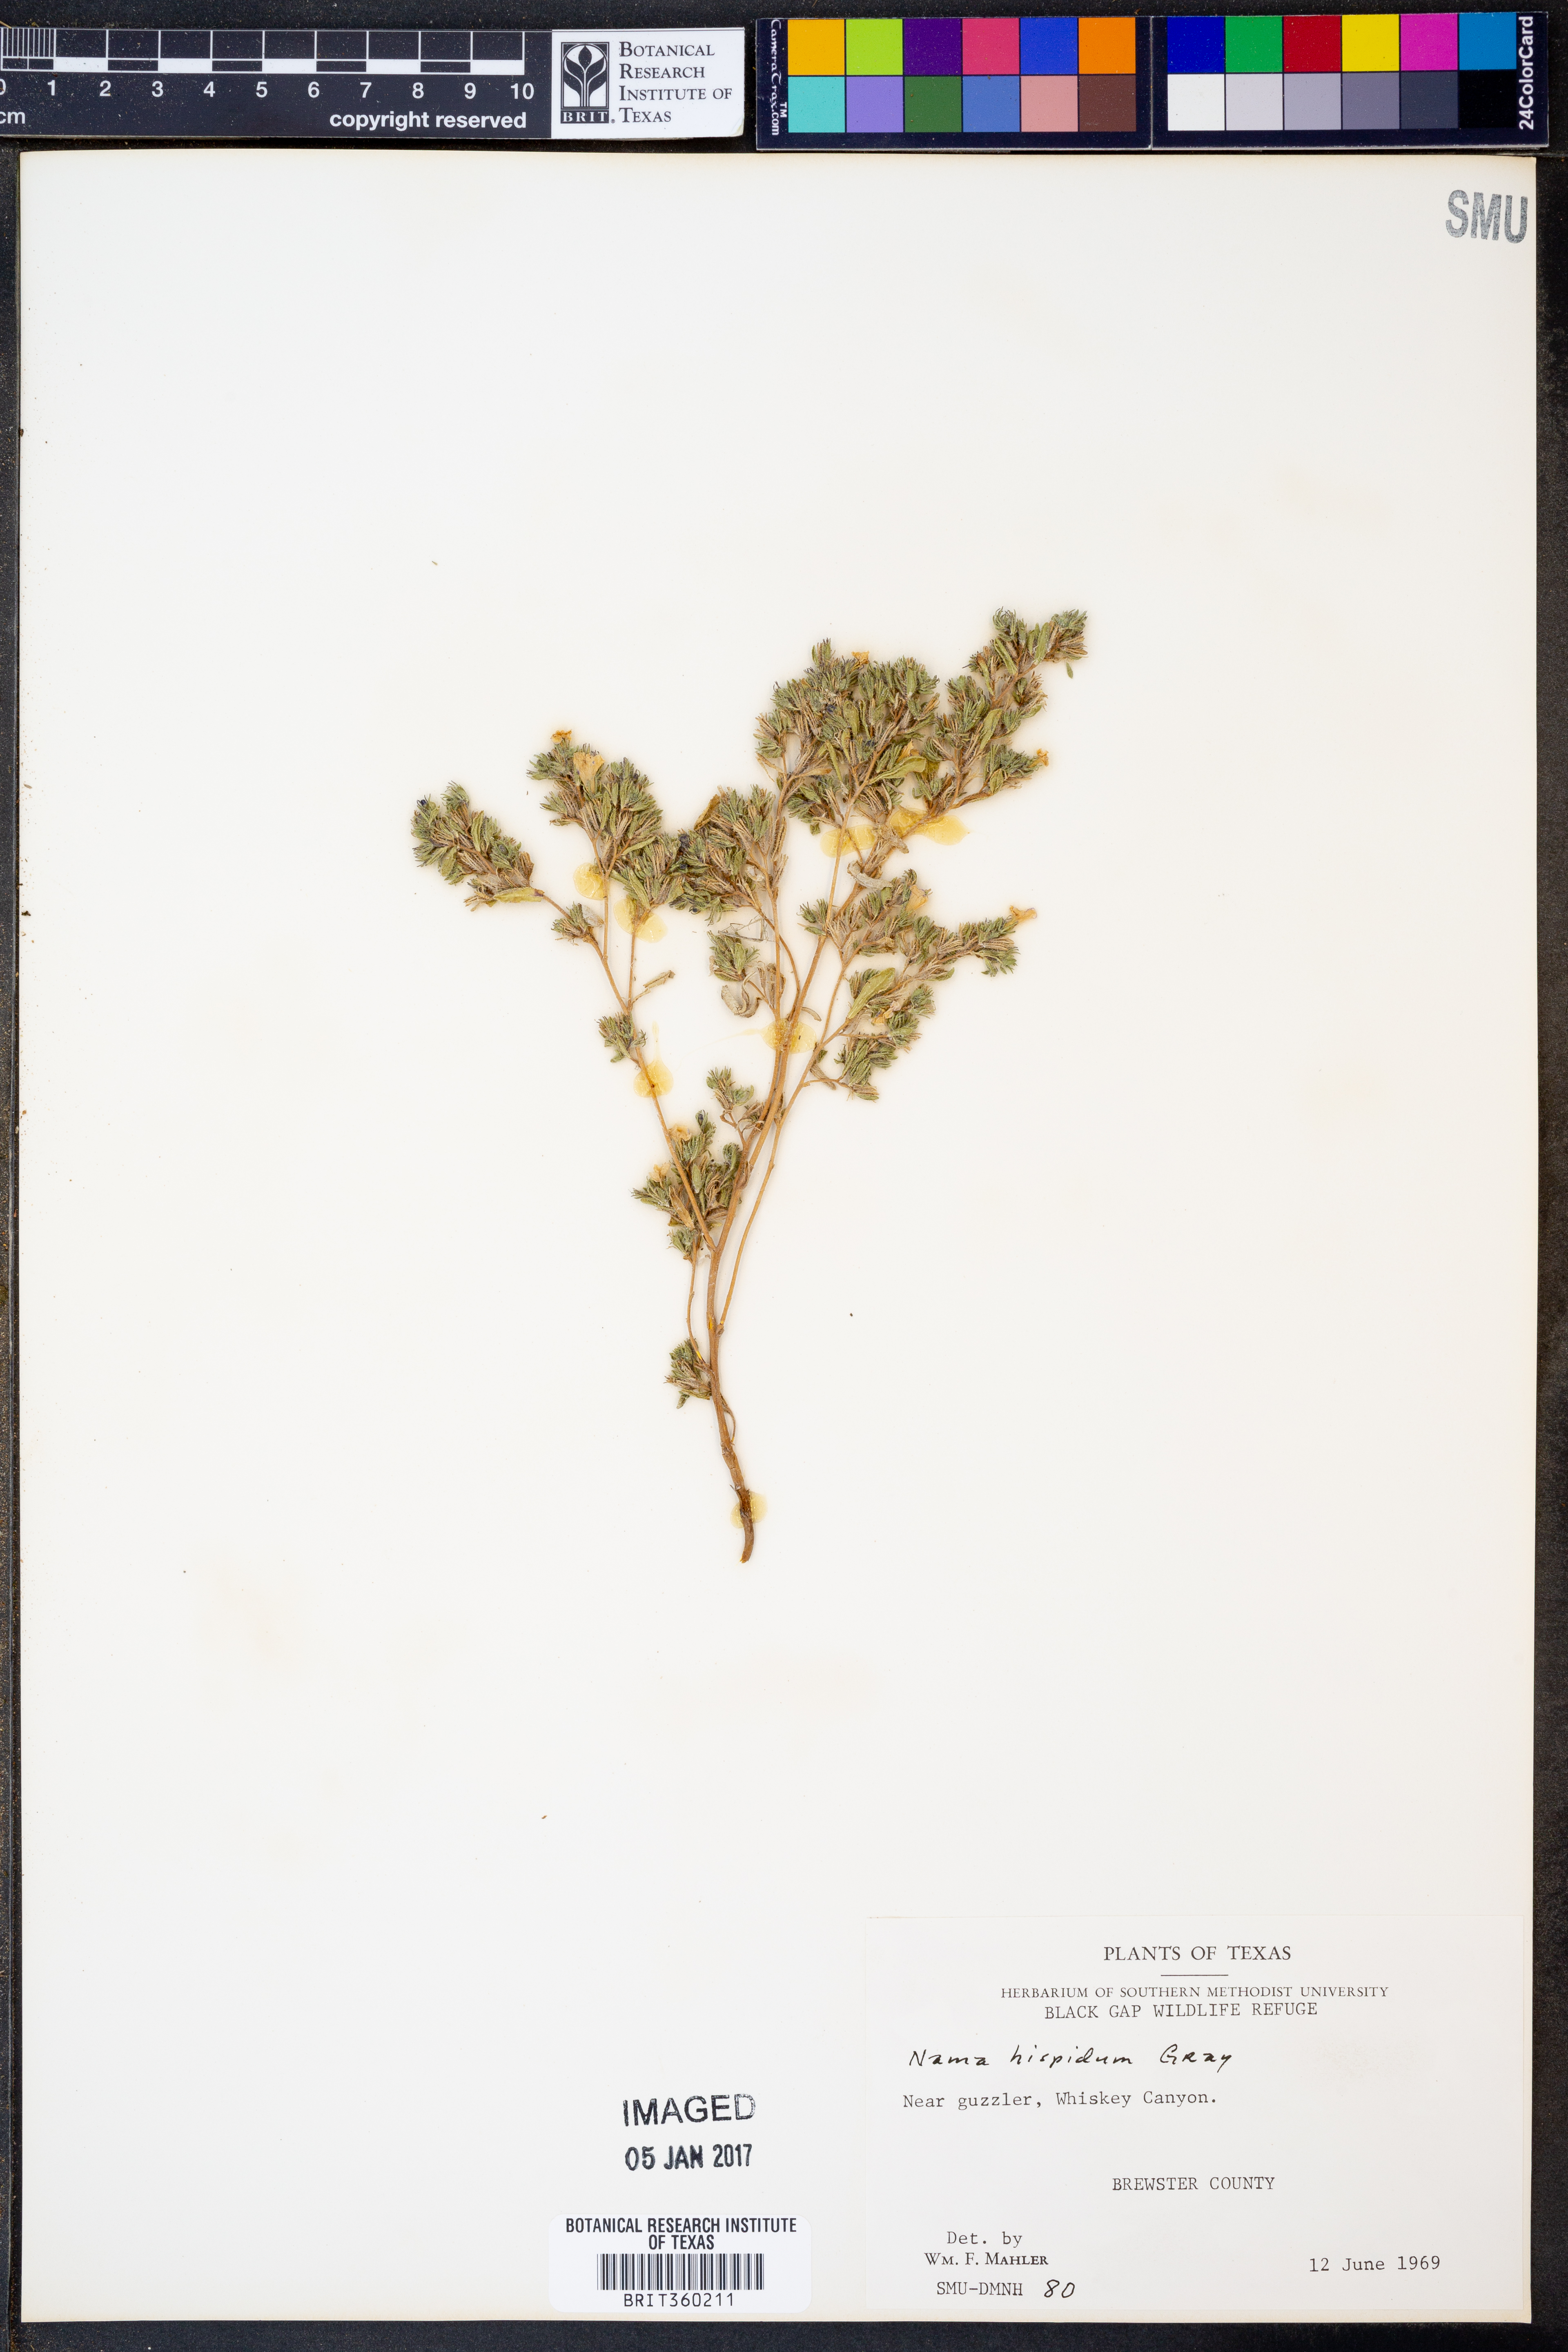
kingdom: Plantae
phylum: Tracheophyta
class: Magnoliopsida
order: Boraginales
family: Namaceae
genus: Nama
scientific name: Nama hispida
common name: Bristly nama
